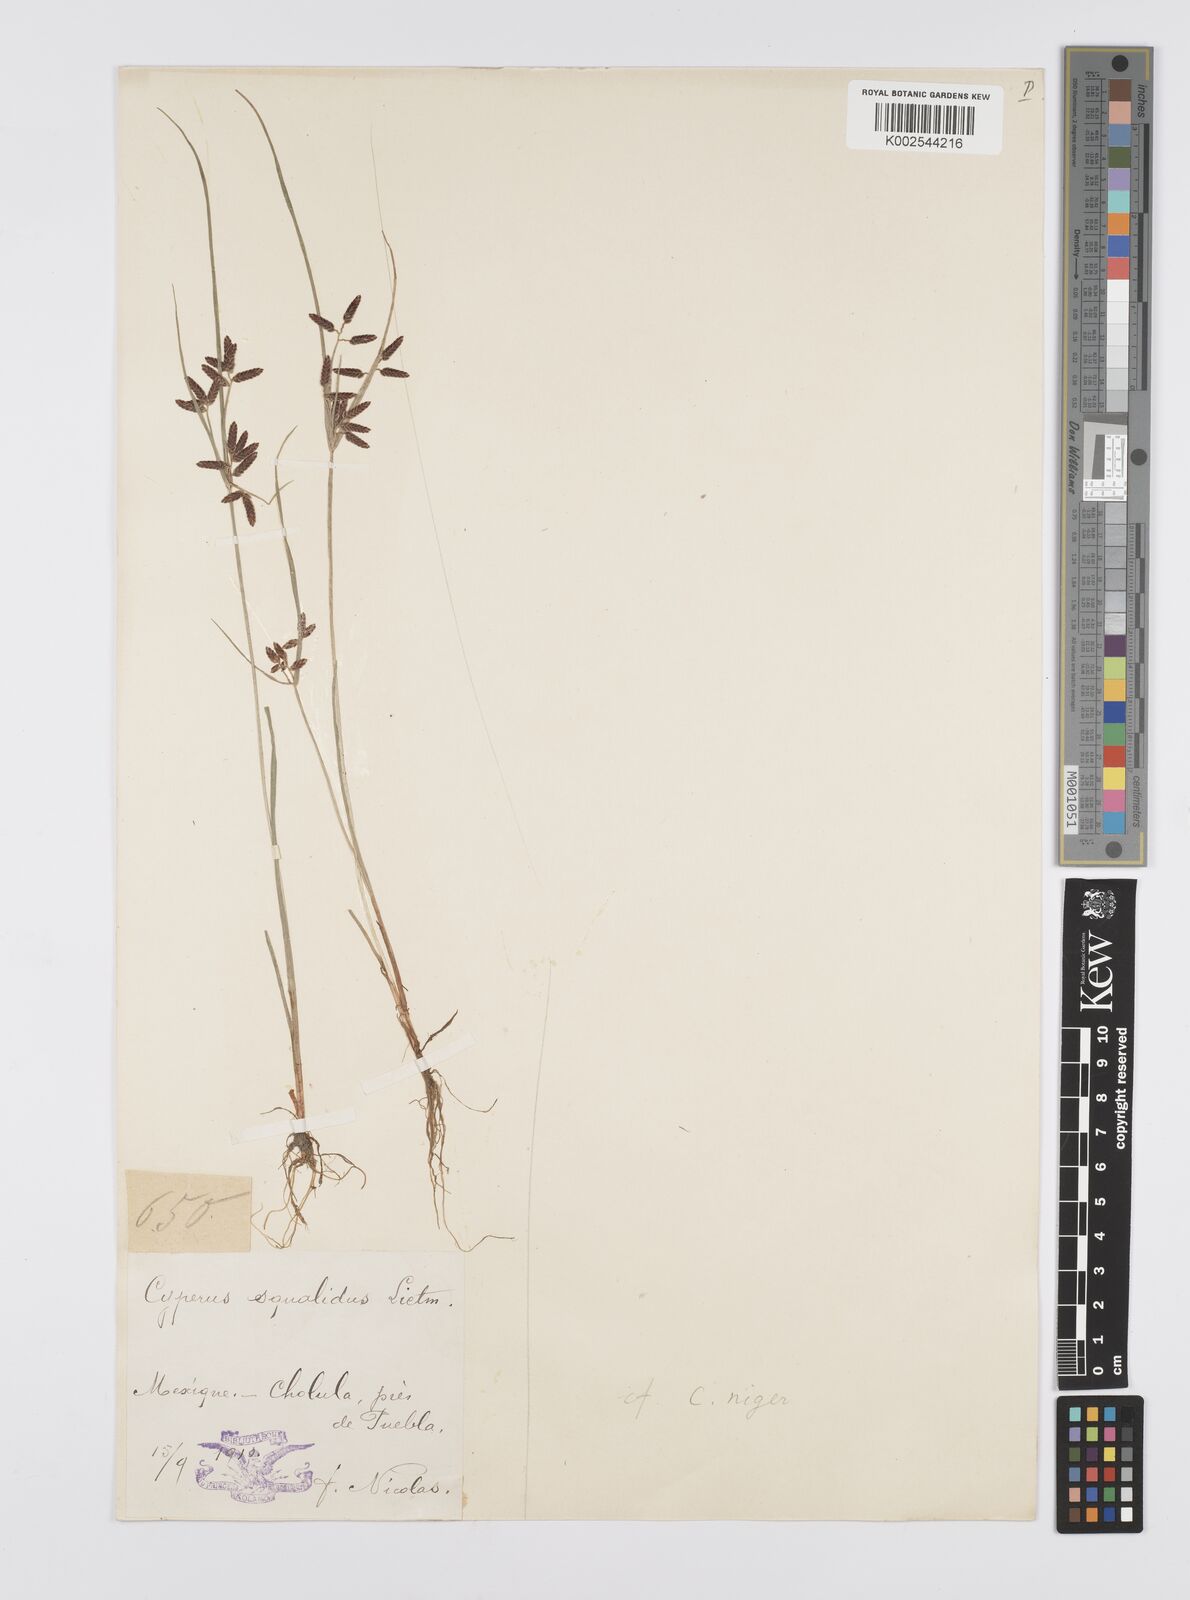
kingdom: Plantae
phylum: Tracheophyta
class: Liliopsida
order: Poales
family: Cyperaceae
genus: Cyperus
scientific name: Cyperus flavescens
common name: Yellow galingale
